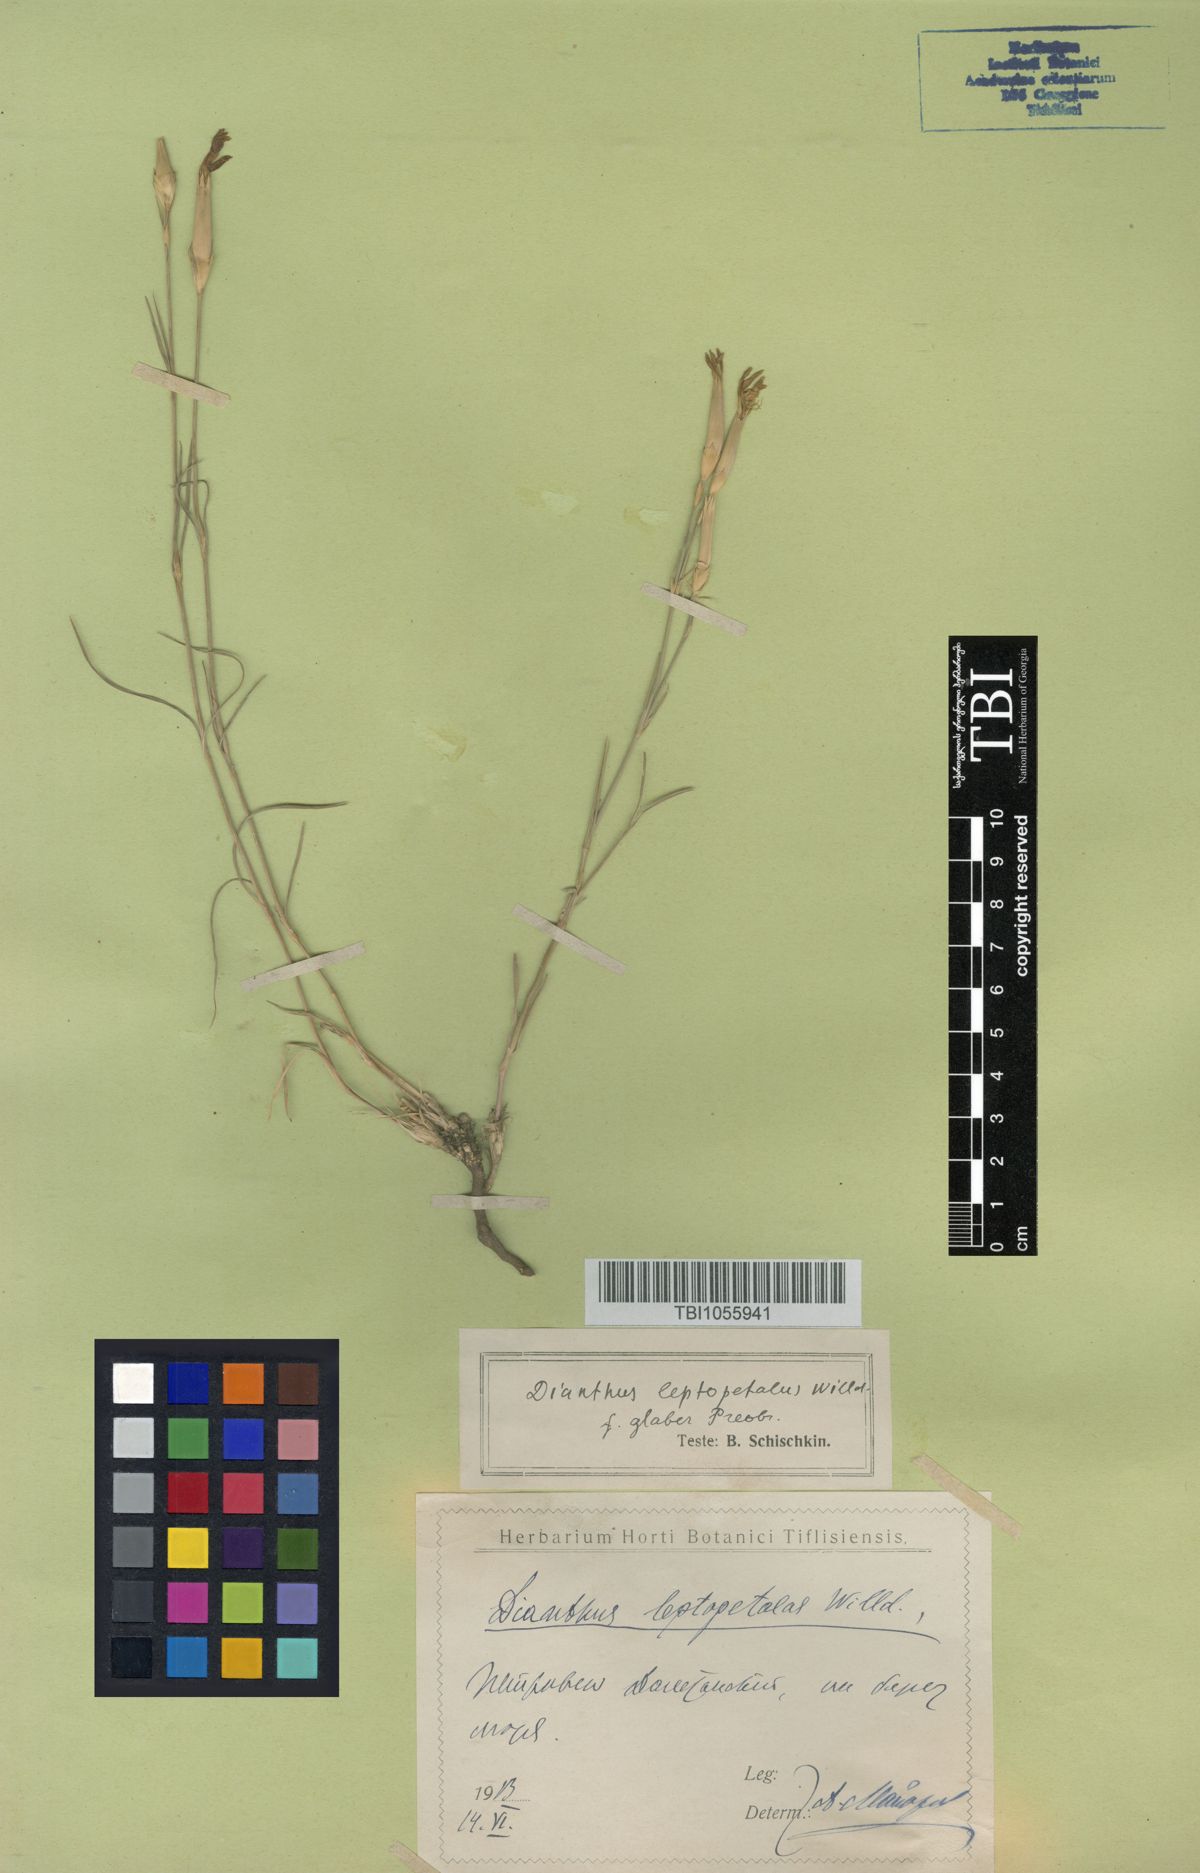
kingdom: Plantae
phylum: Tracheophyta
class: Magnoliopsida
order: Caryophyllales
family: Caryophyllaceae
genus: Dianthus
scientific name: Dianthus leptopetalus
